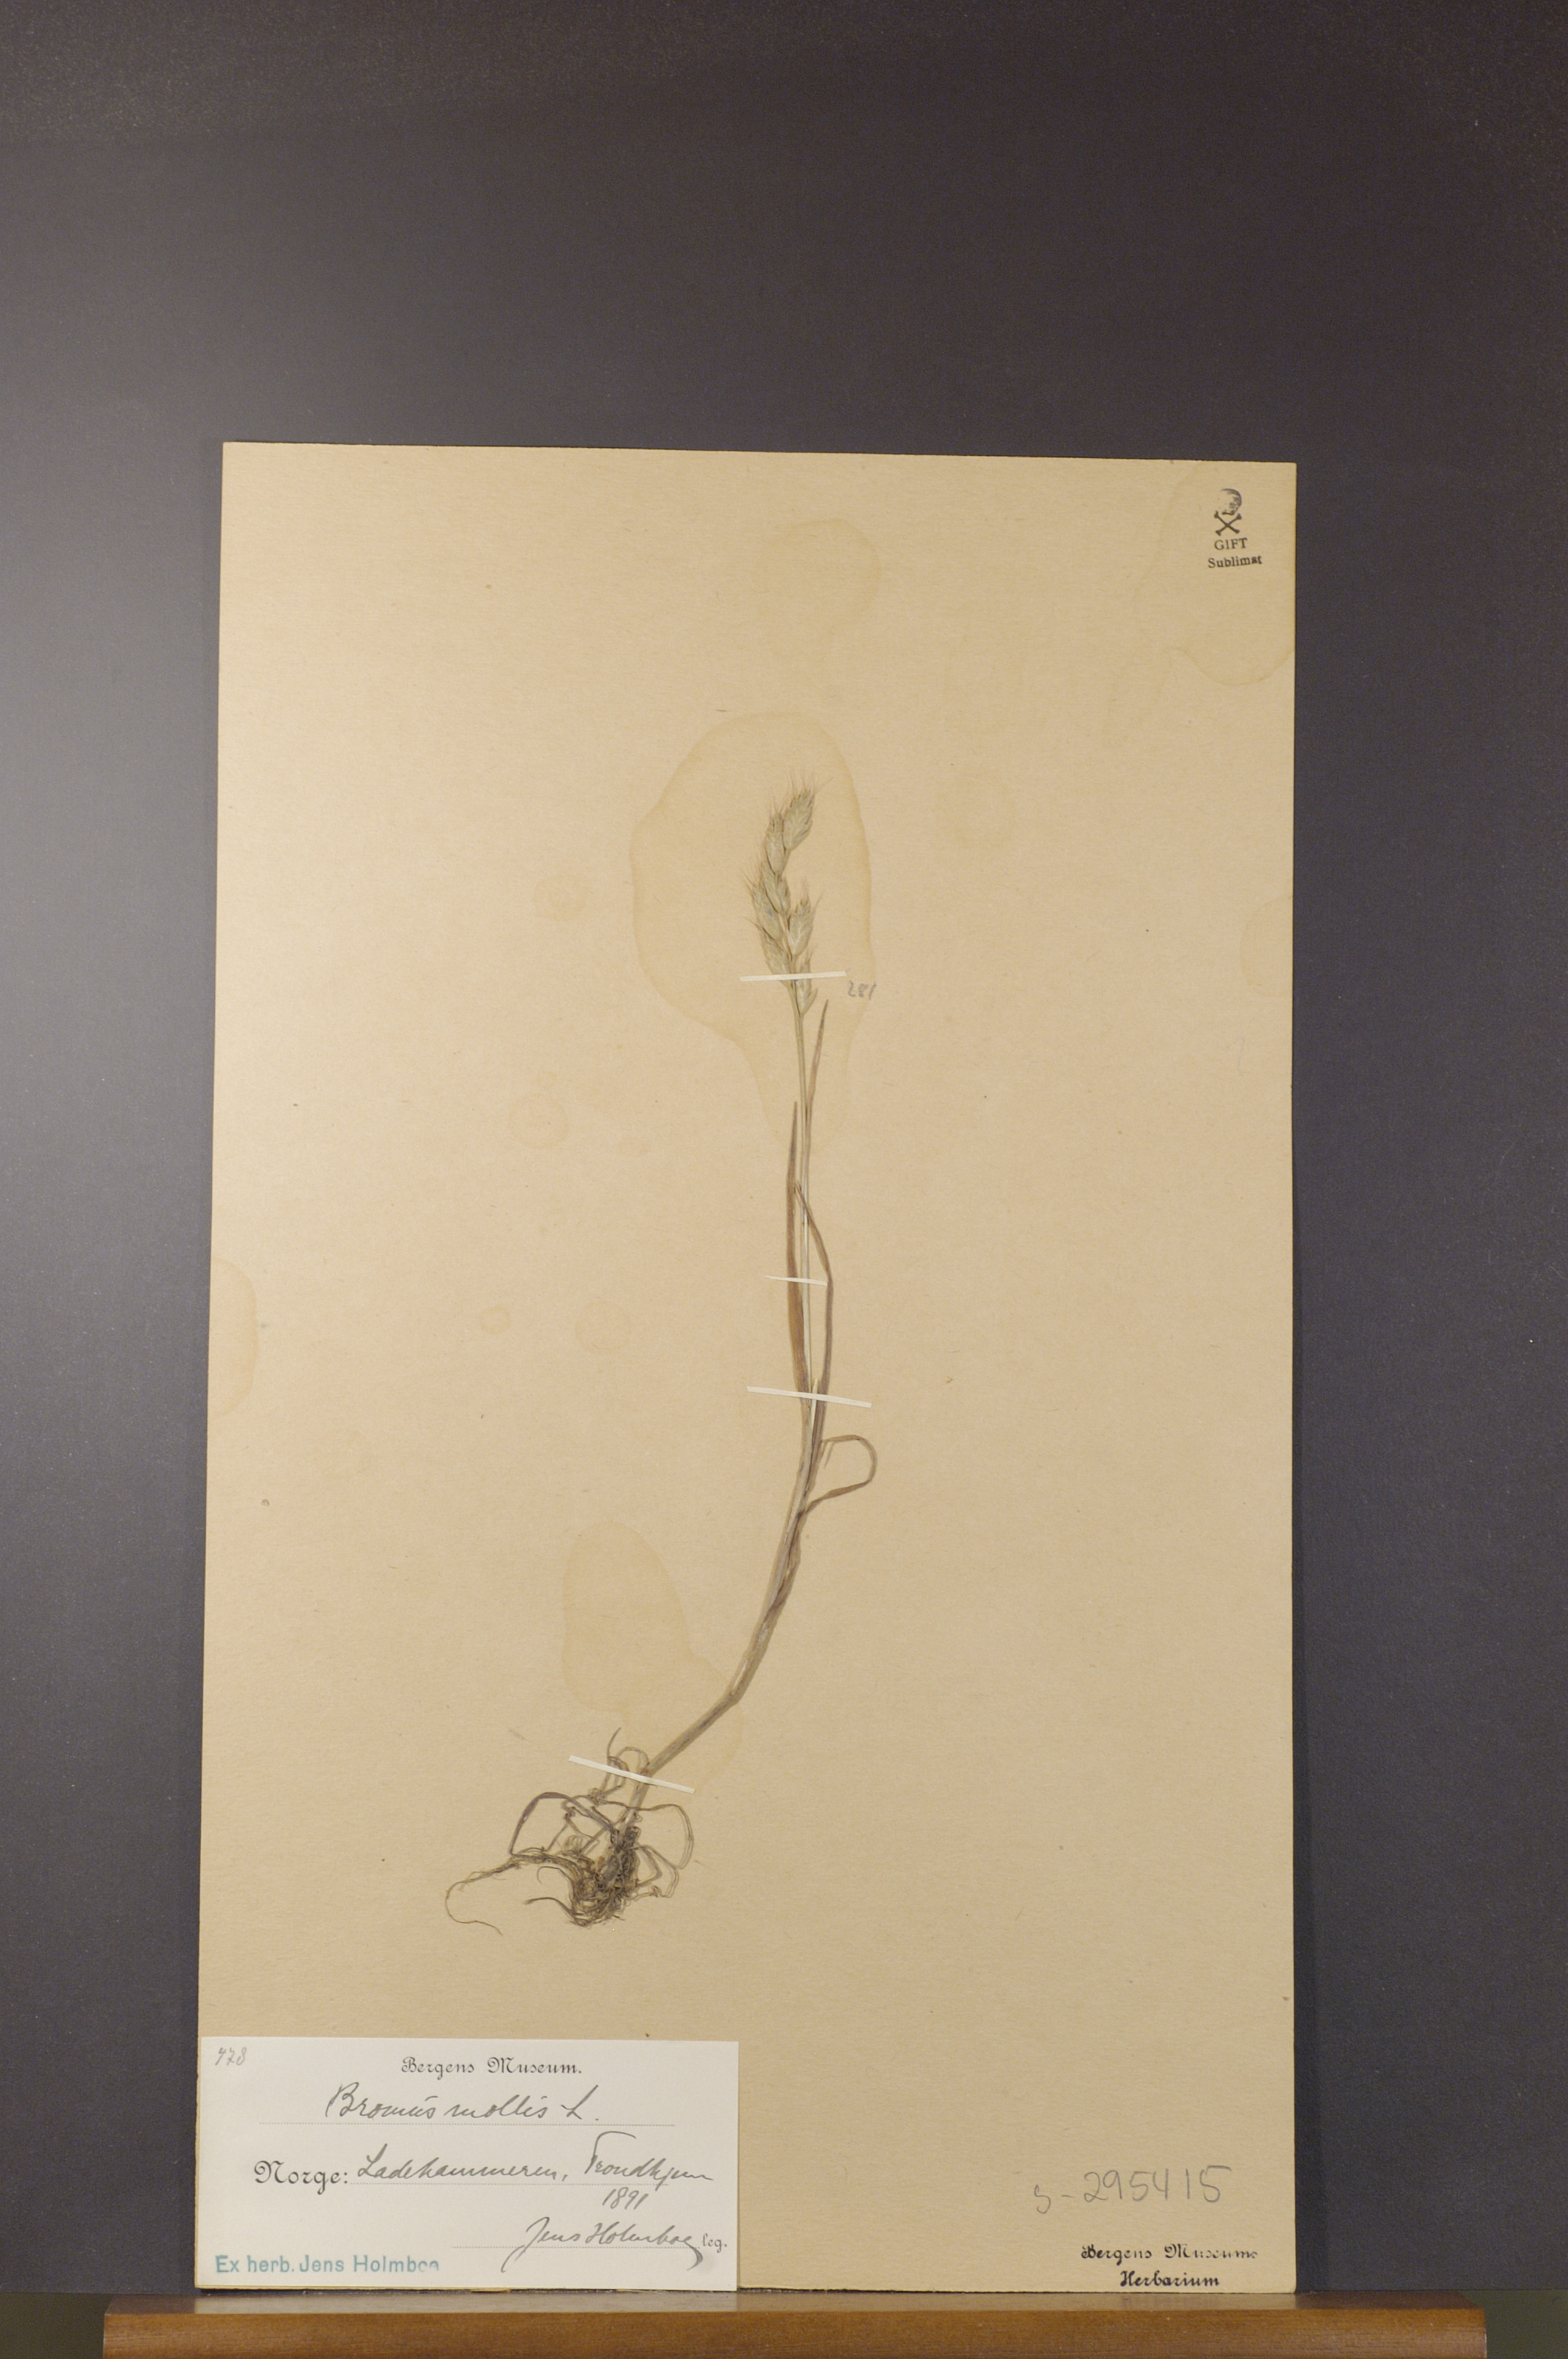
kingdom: Plantae
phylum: Tracheophyta
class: Liliopsida
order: Poales
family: Poaceae
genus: Bromus
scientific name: Bromus hordeaceus
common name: Soft brome
